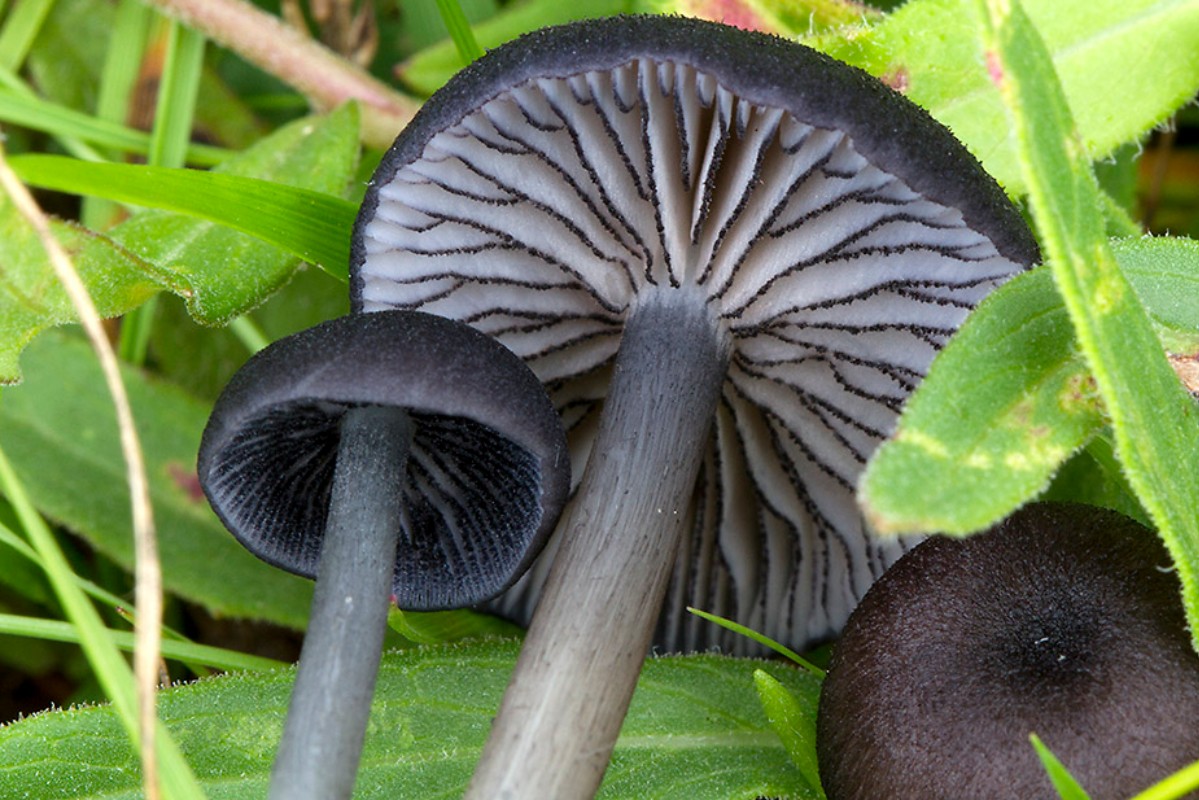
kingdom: Fungi
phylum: Basidiomycota
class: Agaricomycetes
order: Agaricales
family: Entolomataceae
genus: Entoloma
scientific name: Entoloma
